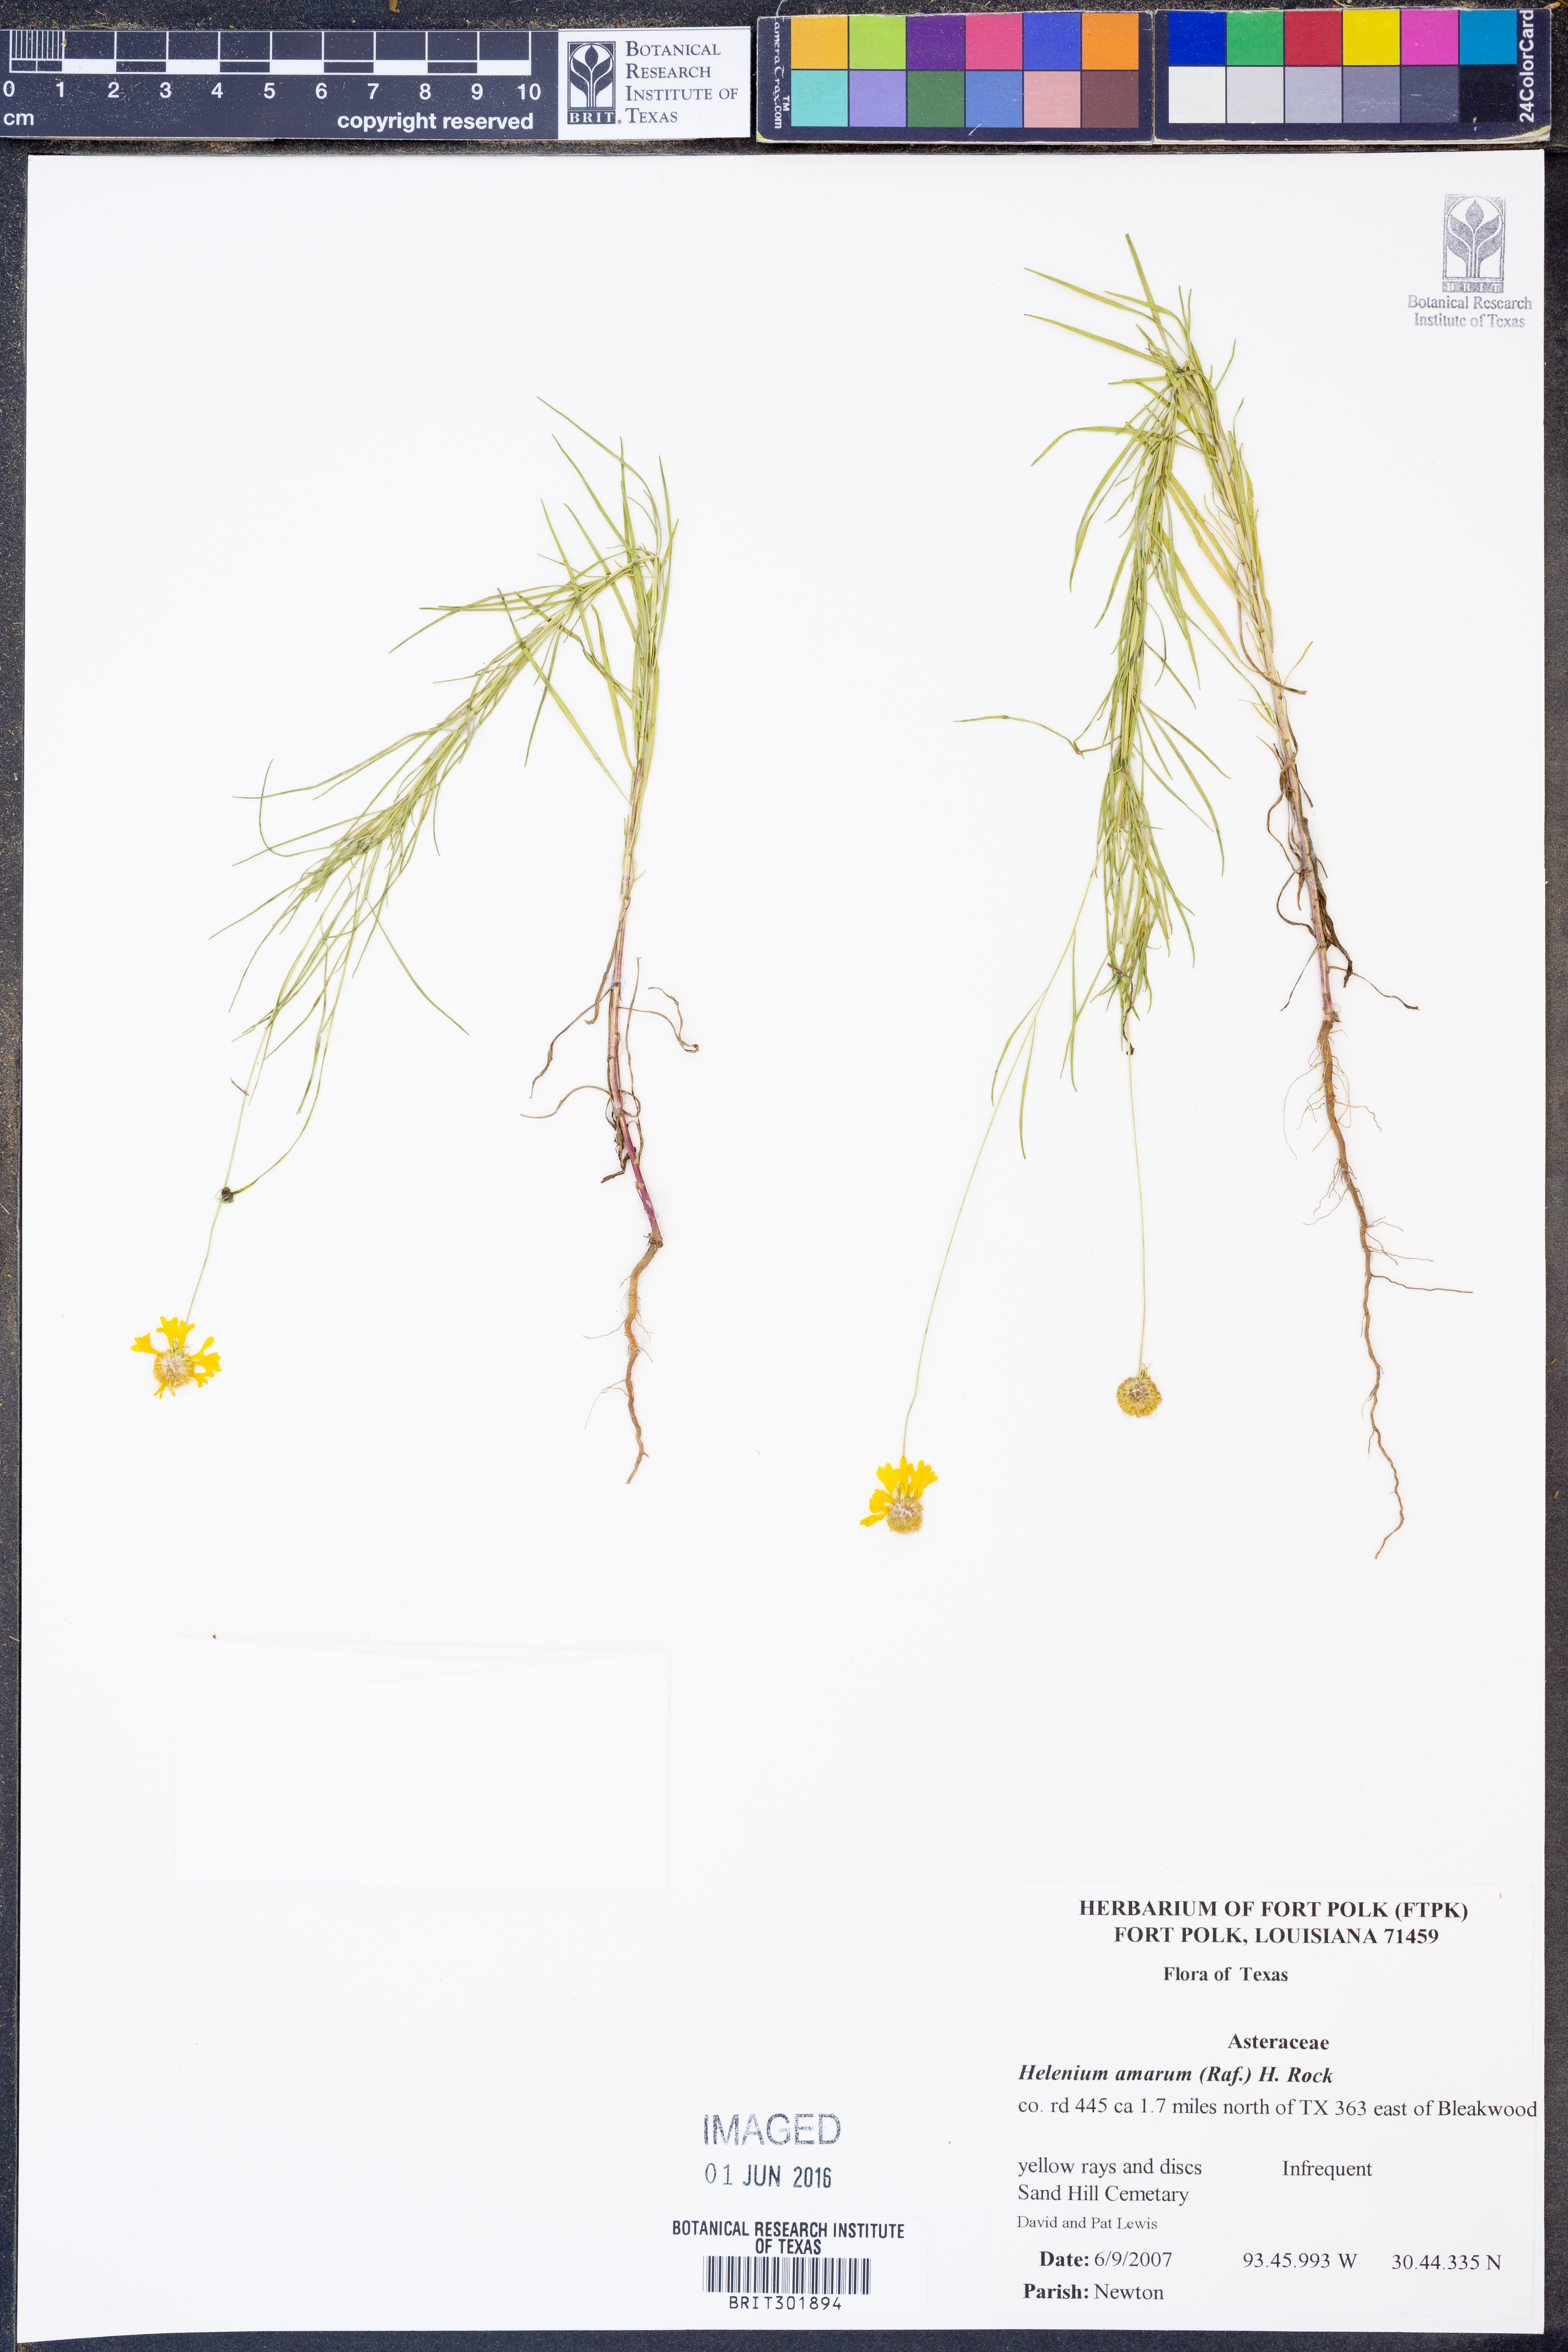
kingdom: Plantae
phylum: Tracheophyta
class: Magnoliopsida
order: Asterales
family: Asteraceae
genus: Helenium
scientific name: Helenium amarum
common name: Bitter sneezeweed
